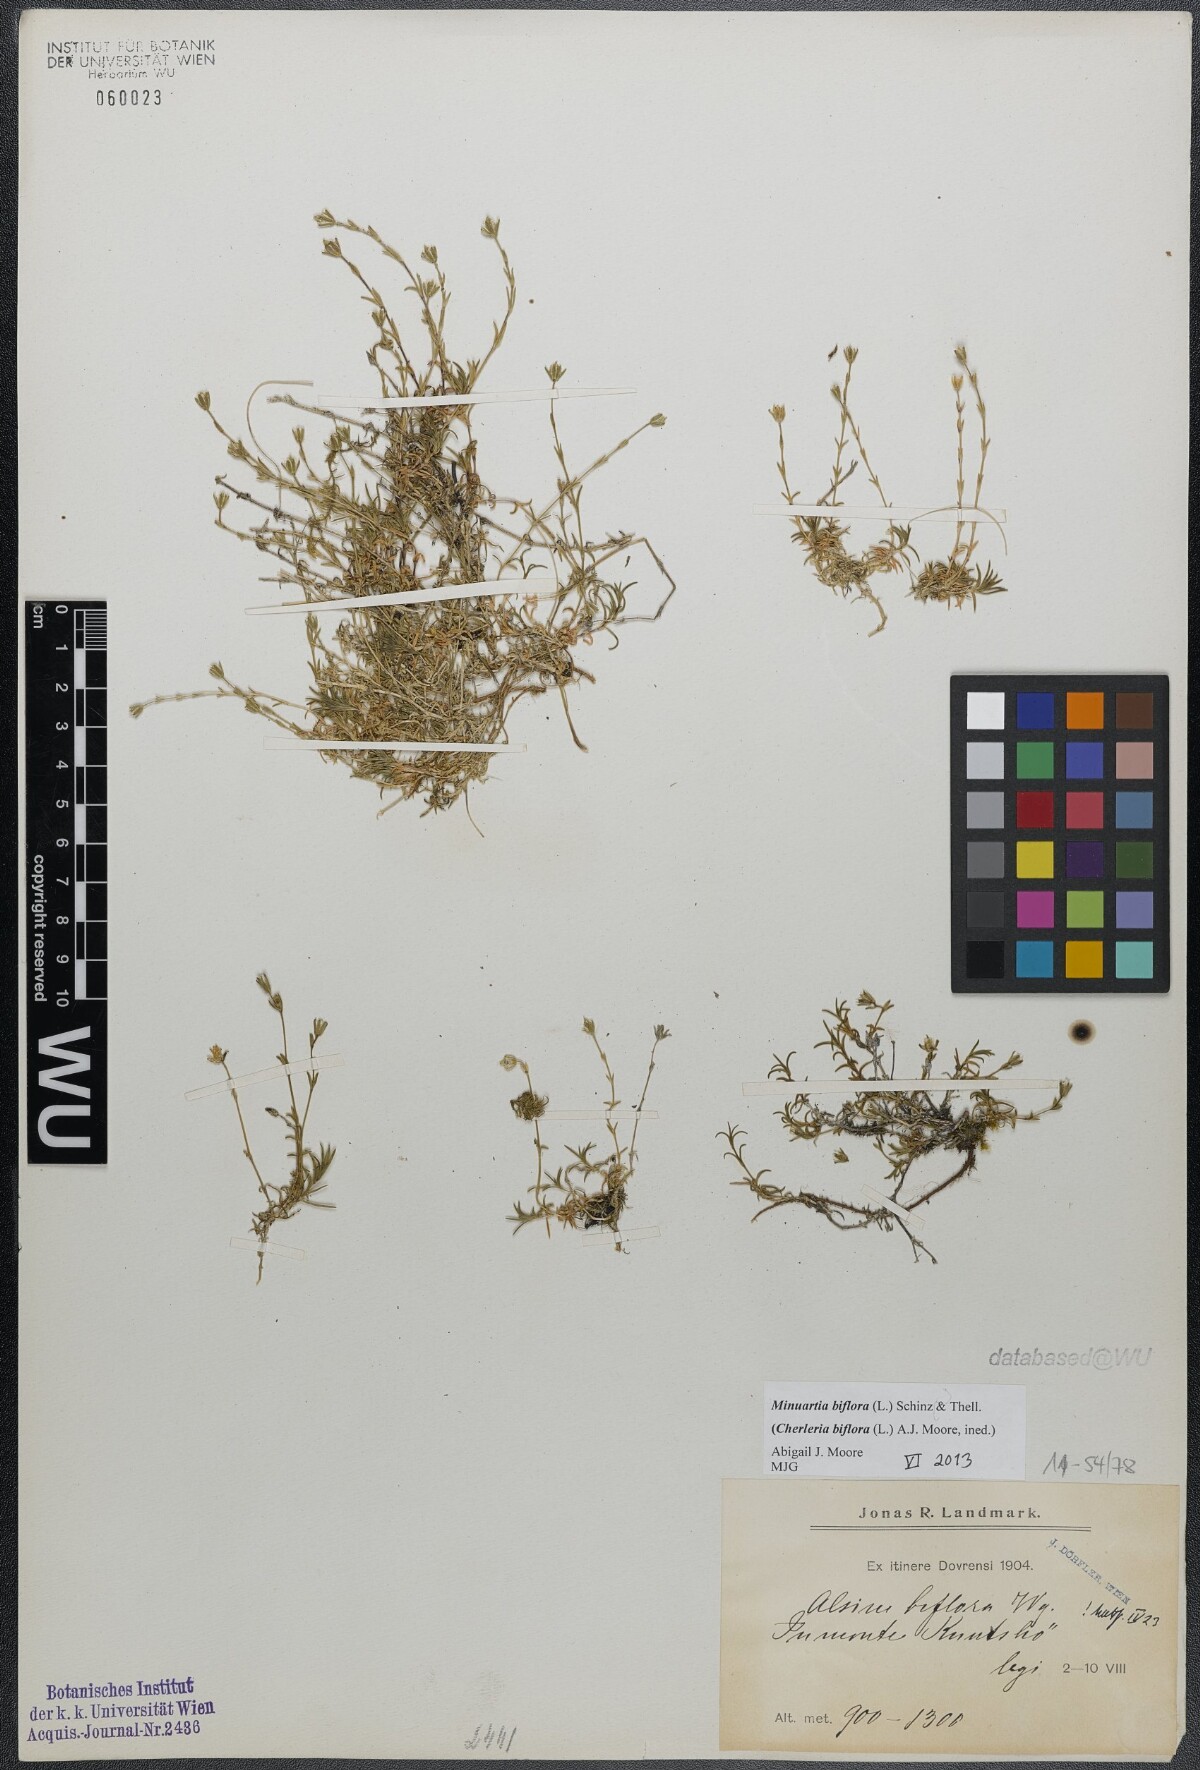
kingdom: Plantae
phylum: Tracheophyta
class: Magnoliopsida
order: Caryophyllales
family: Caryophyllaceae
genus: Cherleria
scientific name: Cherleria biflora
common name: Mountain sandwort
